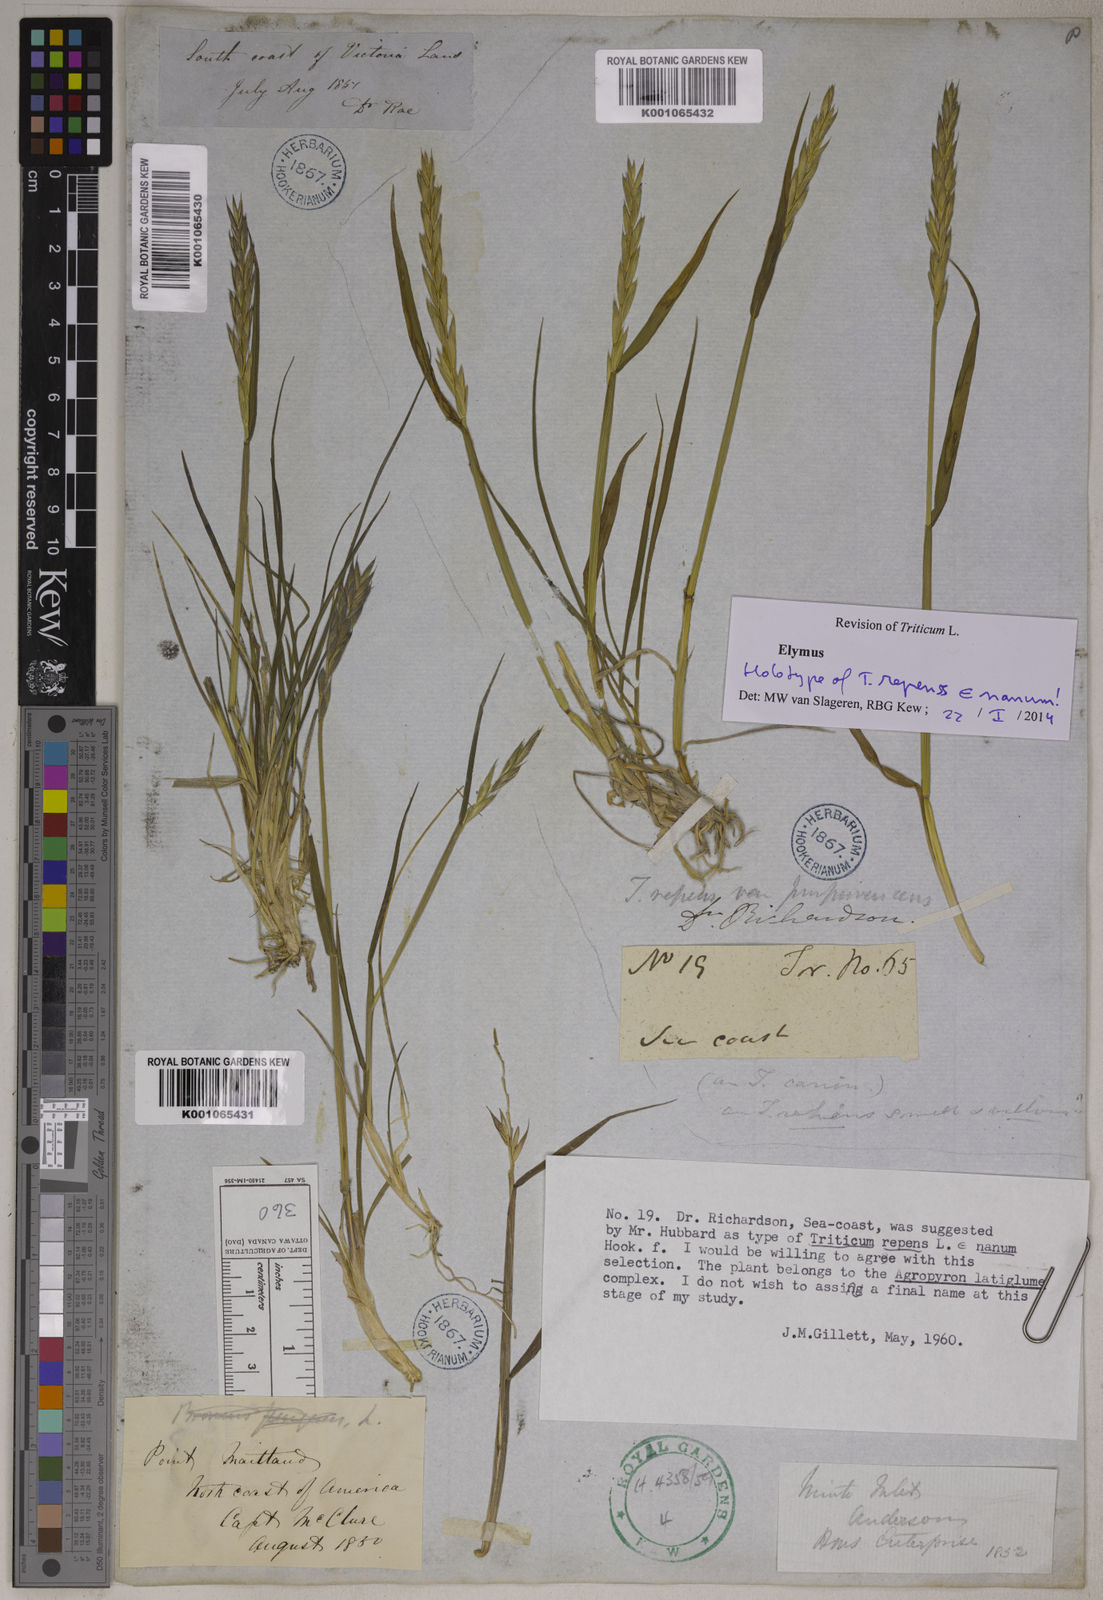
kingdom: Plantae
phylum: Tracheophyta
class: Liliopsida
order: Poales
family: Poaceae
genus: Elymus
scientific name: Elymus repens
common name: Quackgrass
